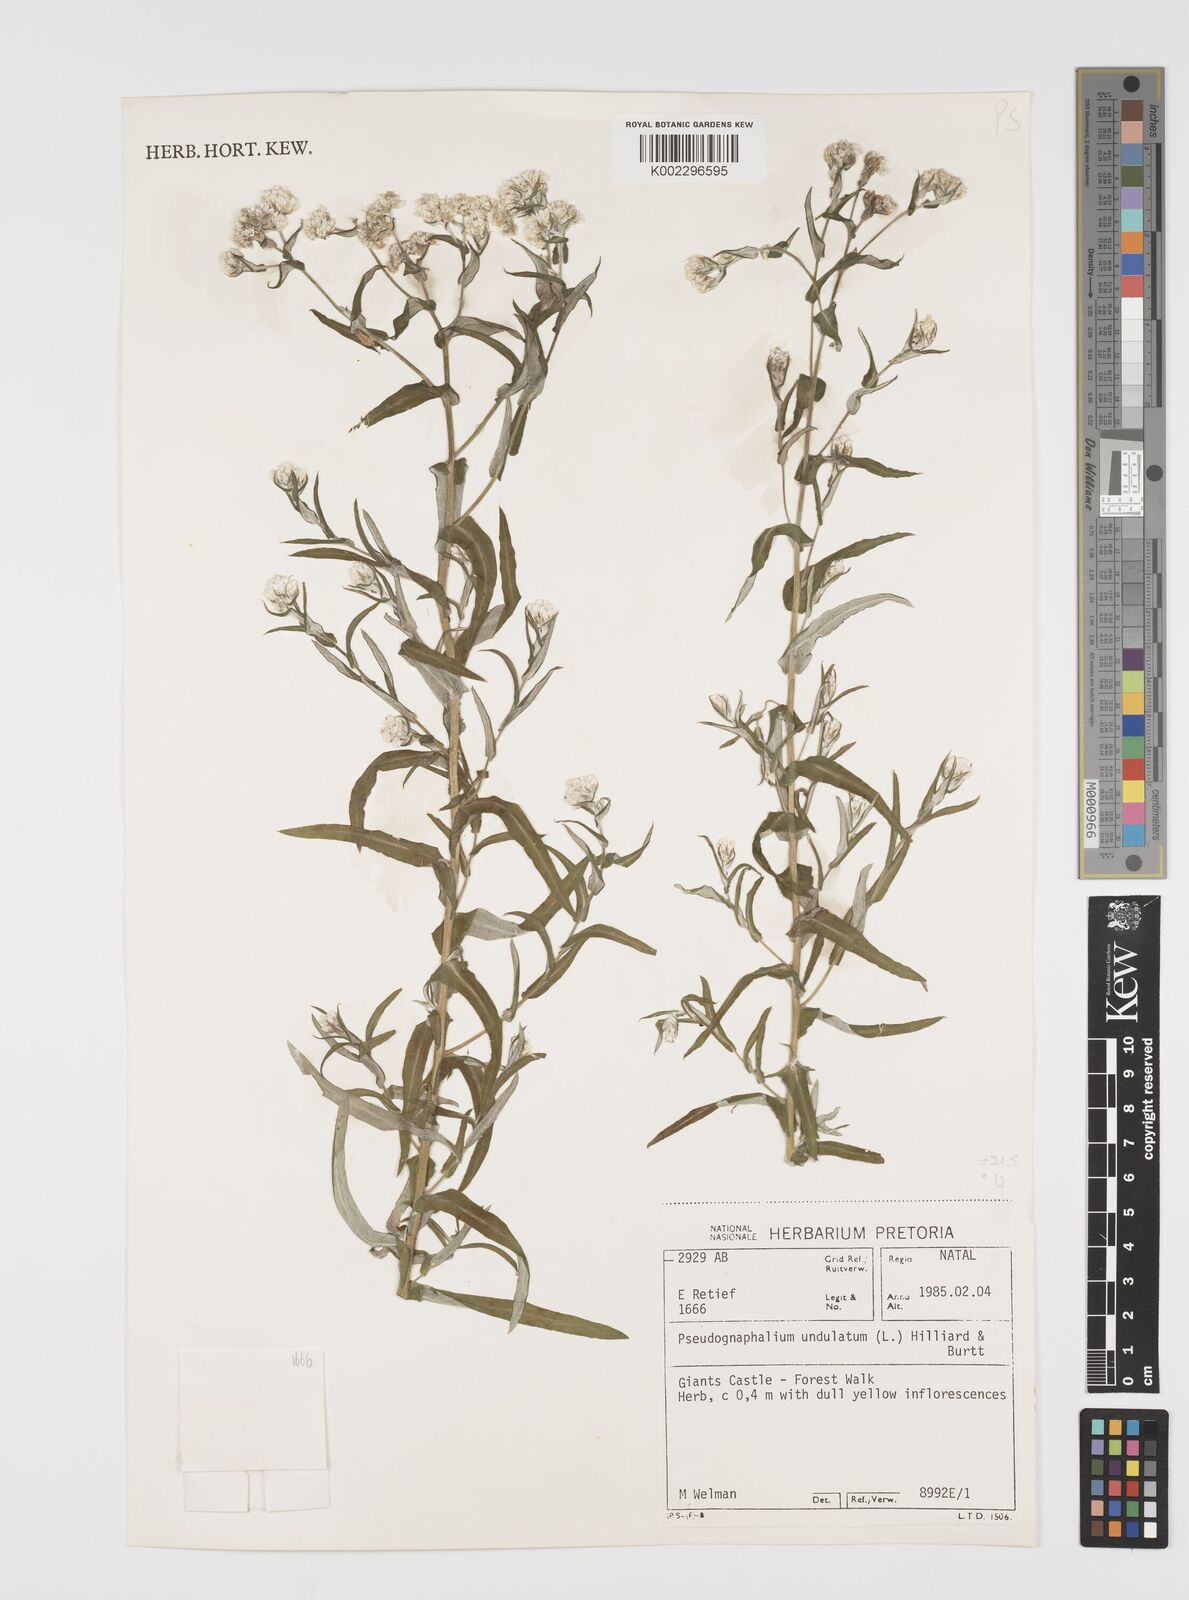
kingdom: Plantae
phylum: Tracheophyta
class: Magnoliopsida
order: Asterales
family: Asteraceae
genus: Pseudognaphalium
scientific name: Pseudognaphalium undulatum
